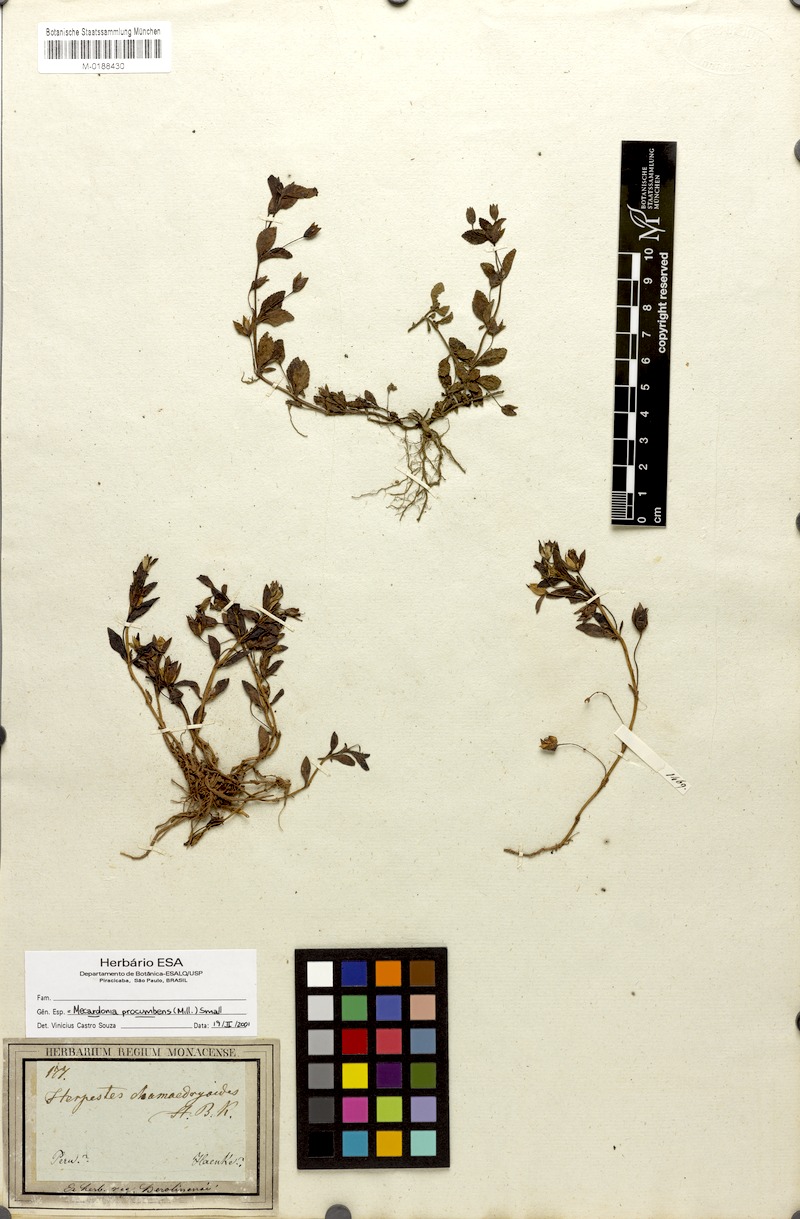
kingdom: Plantae
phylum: Tracheophyta
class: Magnoliopsida
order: Lamiales
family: Plantaginaceae
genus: Mecardonia
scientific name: Mecardonia procumbens
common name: Baby jump-up
